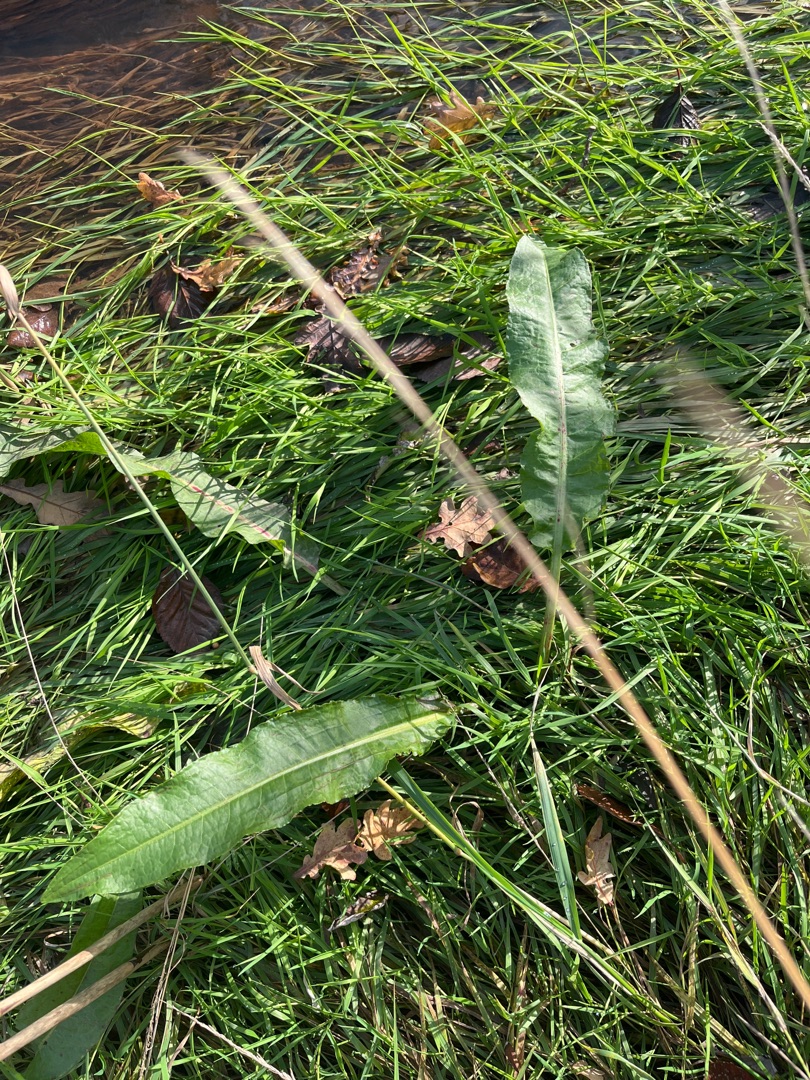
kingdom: Plantae
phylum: Tracheophyta
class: Magnoliopsida
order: Caryophyllales
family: Polygonaceae
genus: Rumex
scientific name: Rumex
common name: Skræppeslægten
